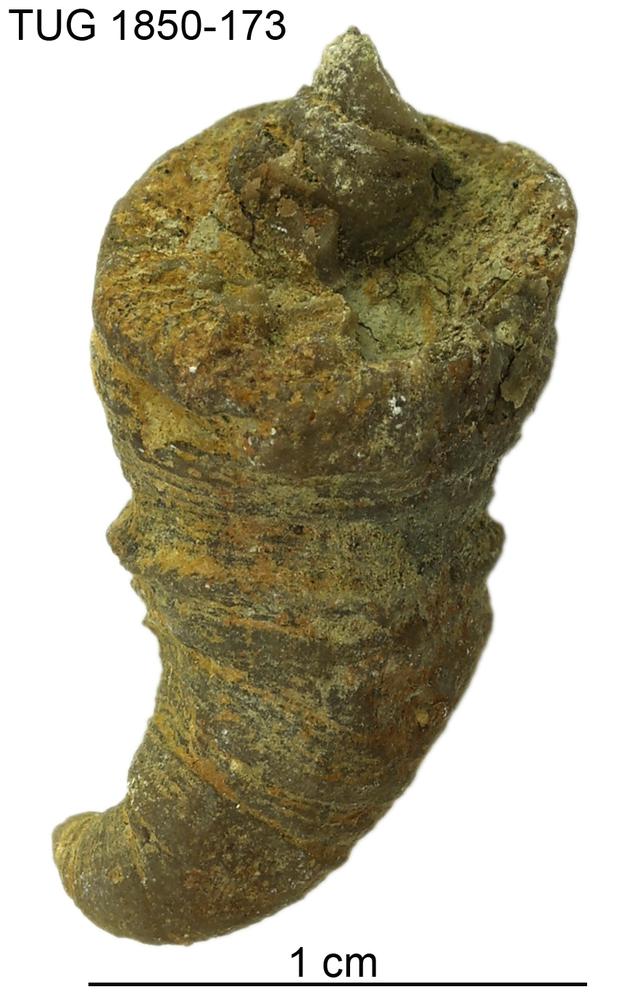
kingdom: Animalia
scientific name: Animalia
